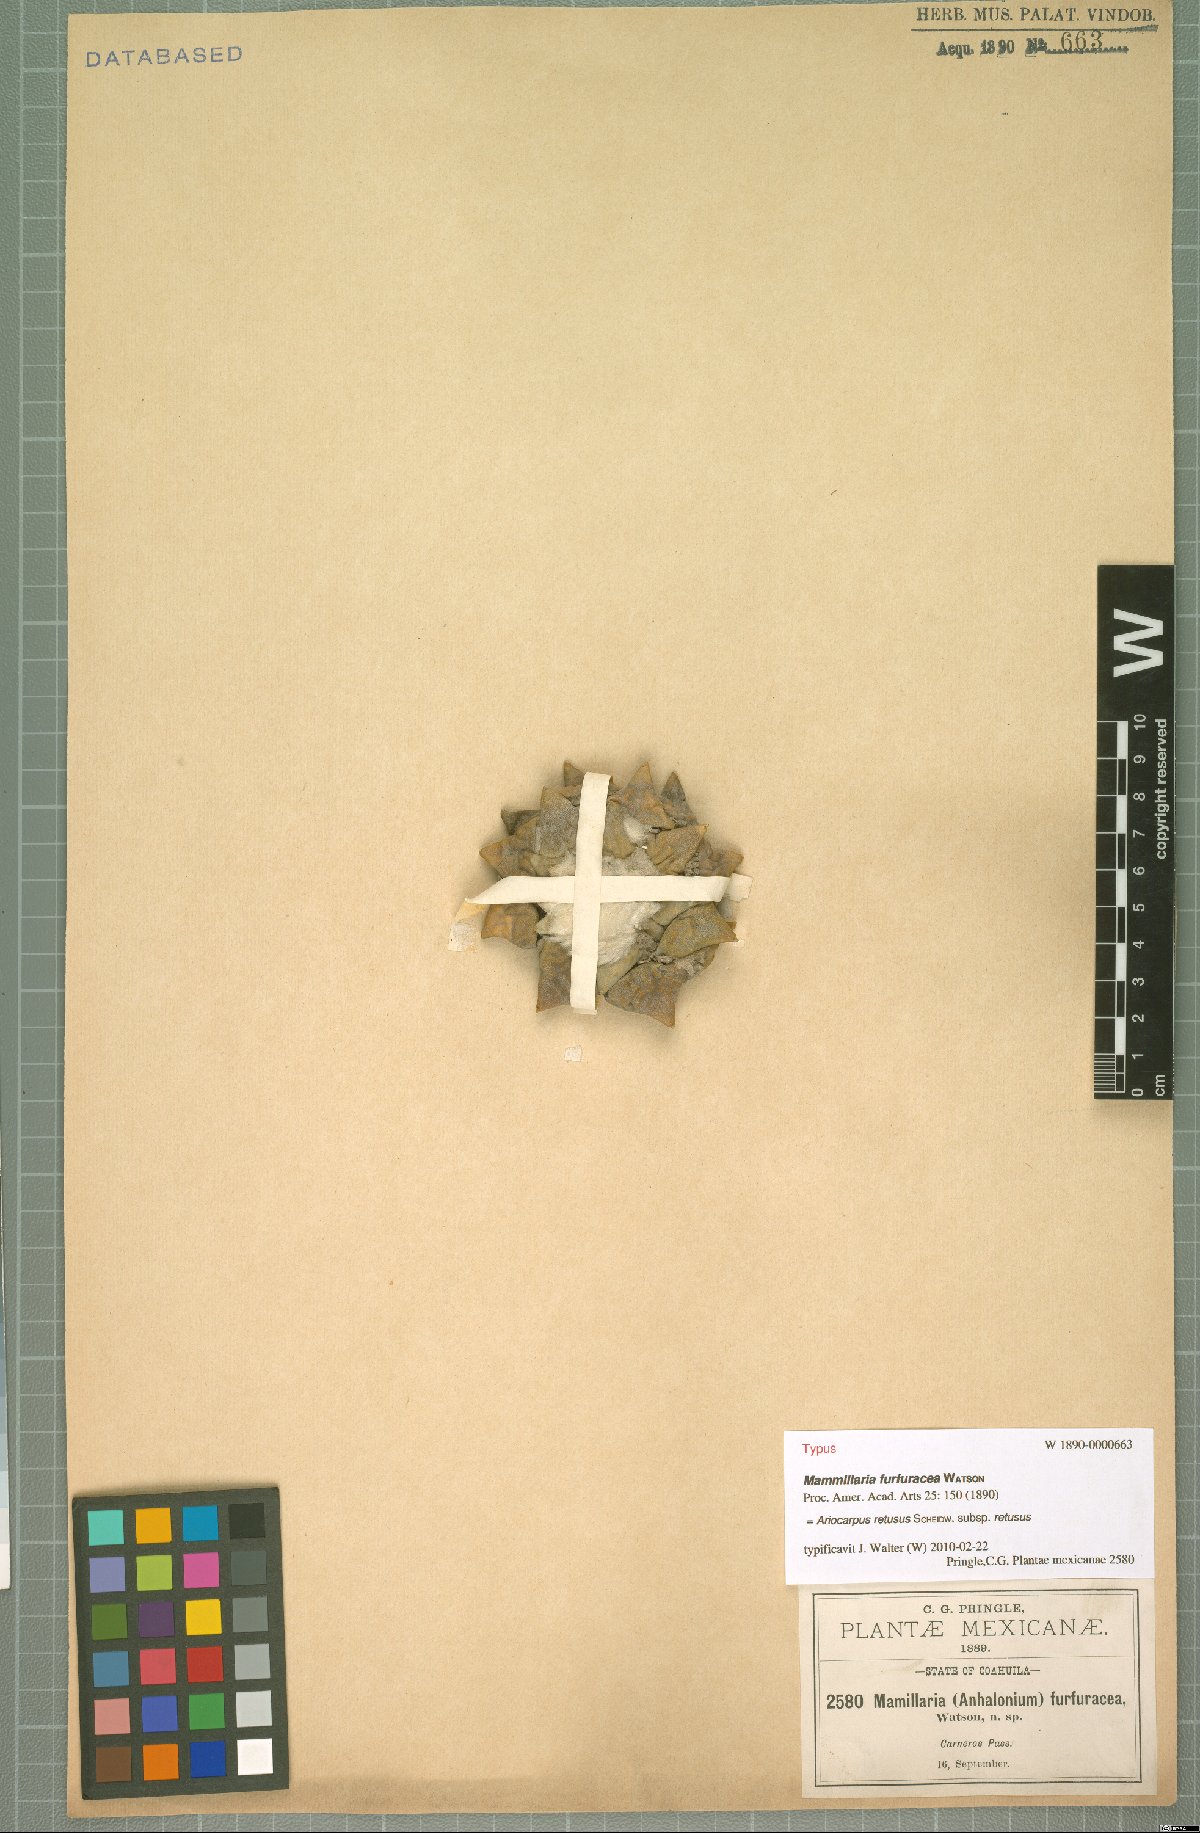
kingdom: Plantae
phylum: Tracheophyta
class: Magnoliopsida
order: Caryophyllales
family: Cactaceae
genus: Ariocarpus
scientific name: Ariocarpus retusus
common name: Seven stars
